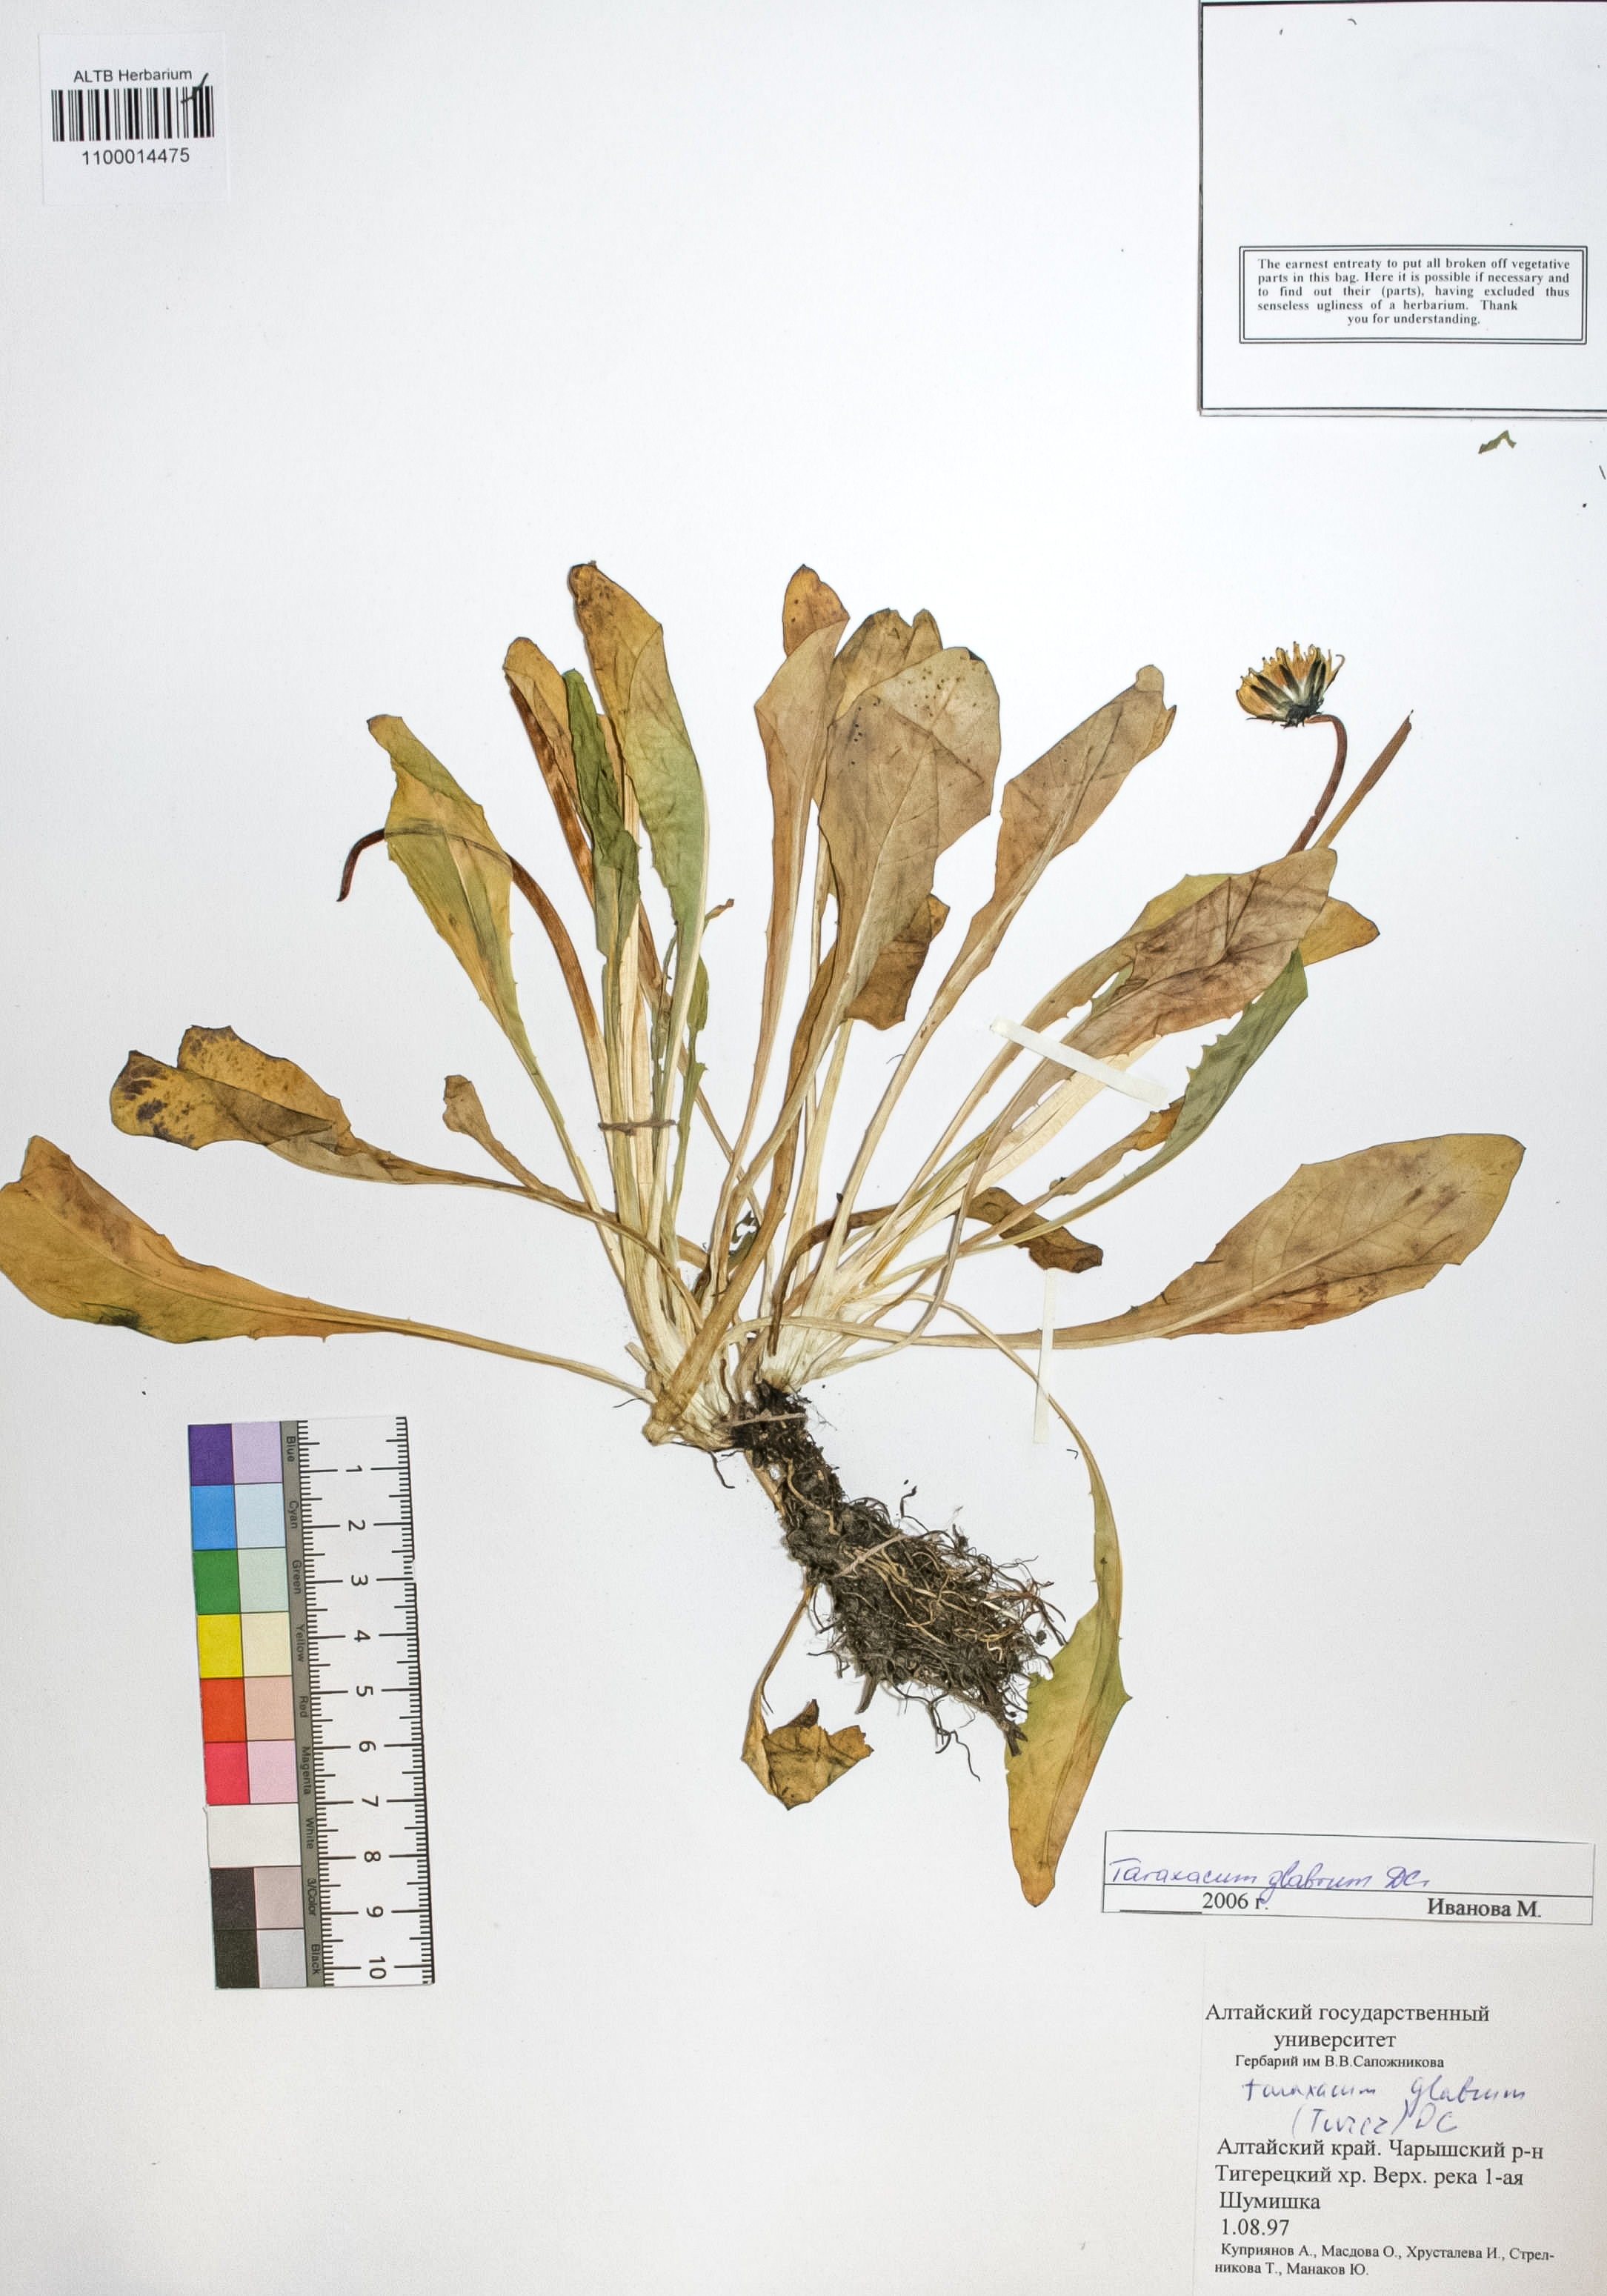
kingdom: Plantae
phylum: Tracheophyta
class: Magnoliopsida
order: Asterales
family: Asteraceae
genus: Taraxacum
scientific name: Taraxacum glabrum
